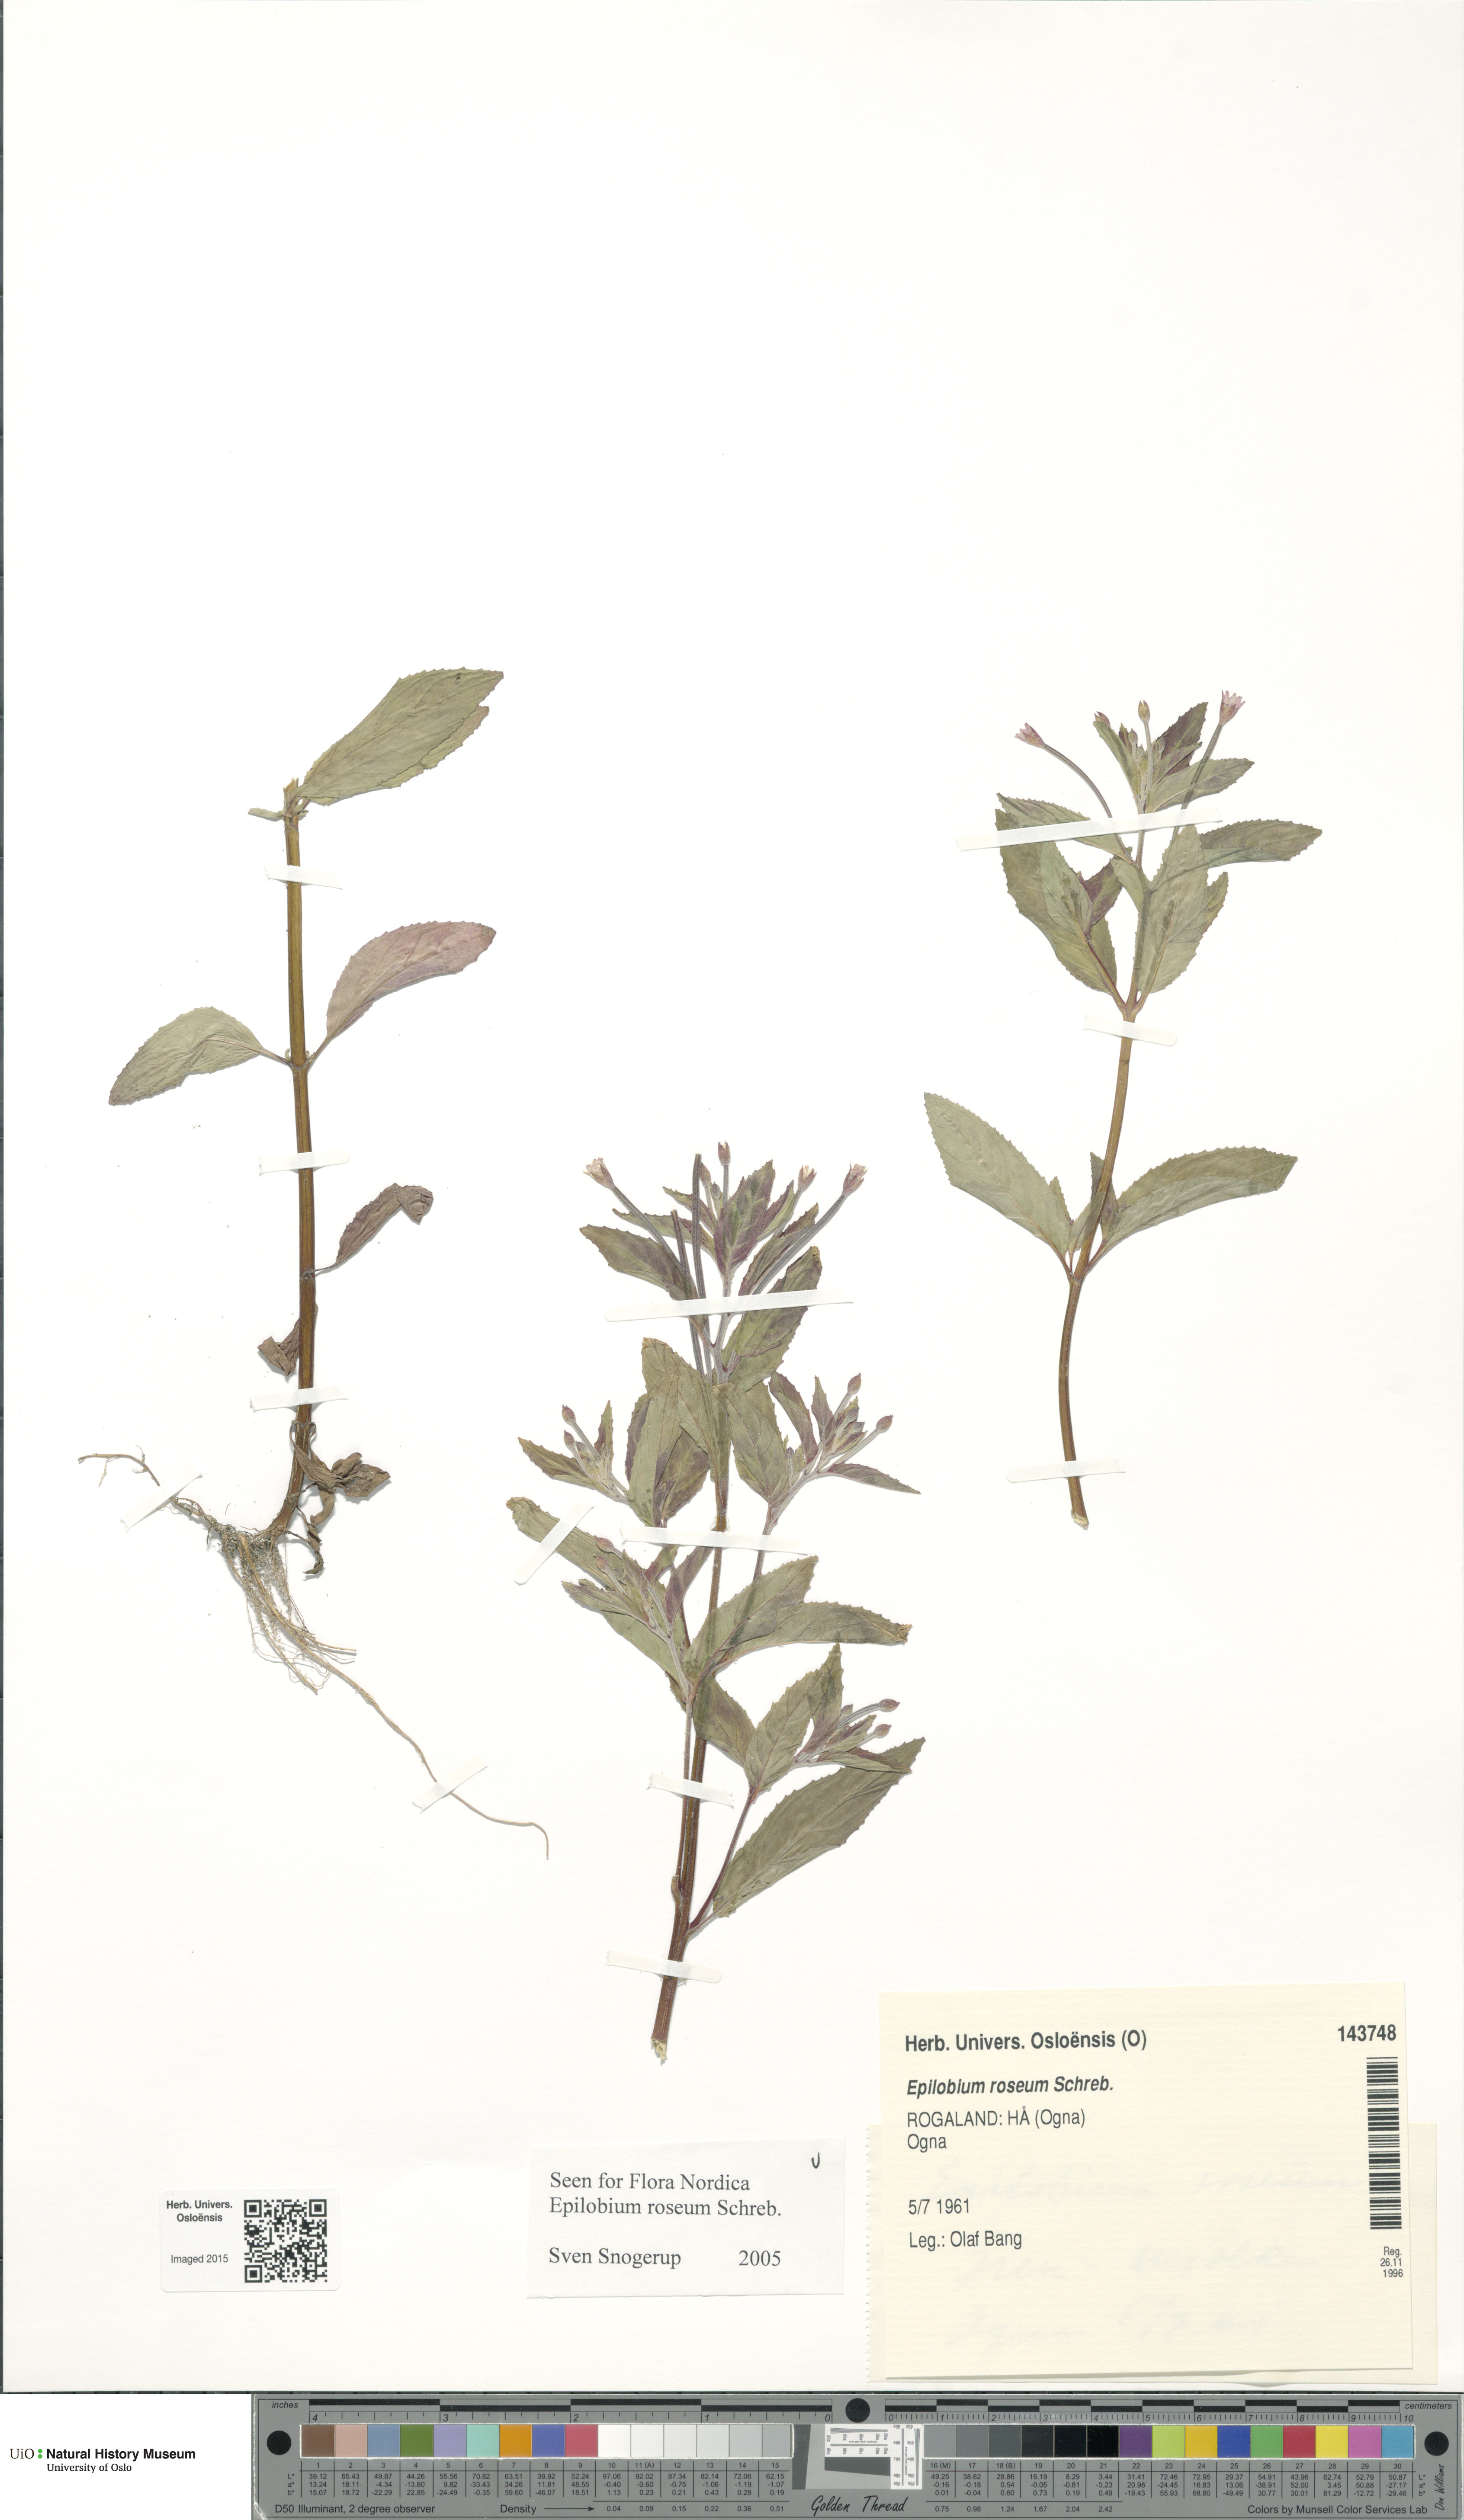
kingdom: Plantae
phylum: Tracheophyta
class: Magnoliopsida
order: Myrtales
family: Onagraceae
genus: Epilobium
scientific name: Epilobium roseum
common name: Pale willowherb
